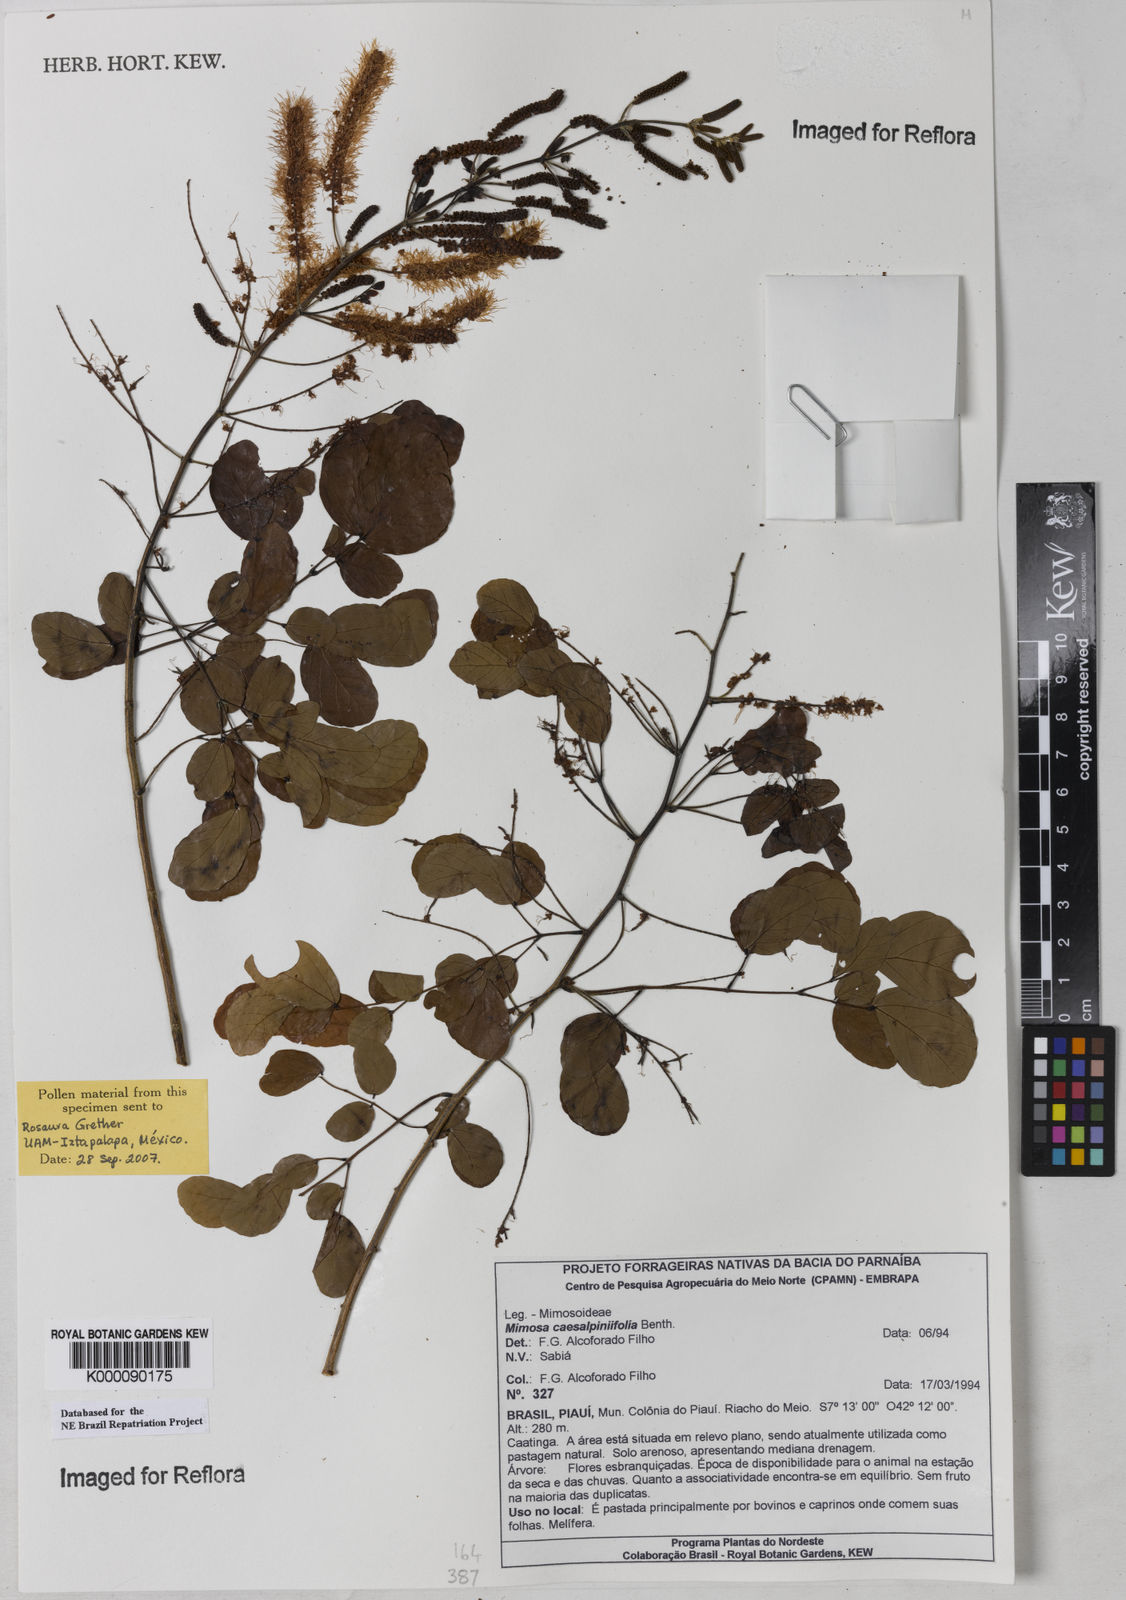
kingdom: Plantae
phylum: Tracheophyta
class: Magnoliopsida
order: Fabales
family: Fabaceae
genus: Mimosa
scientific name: Mimosa caesalpiniifolia
